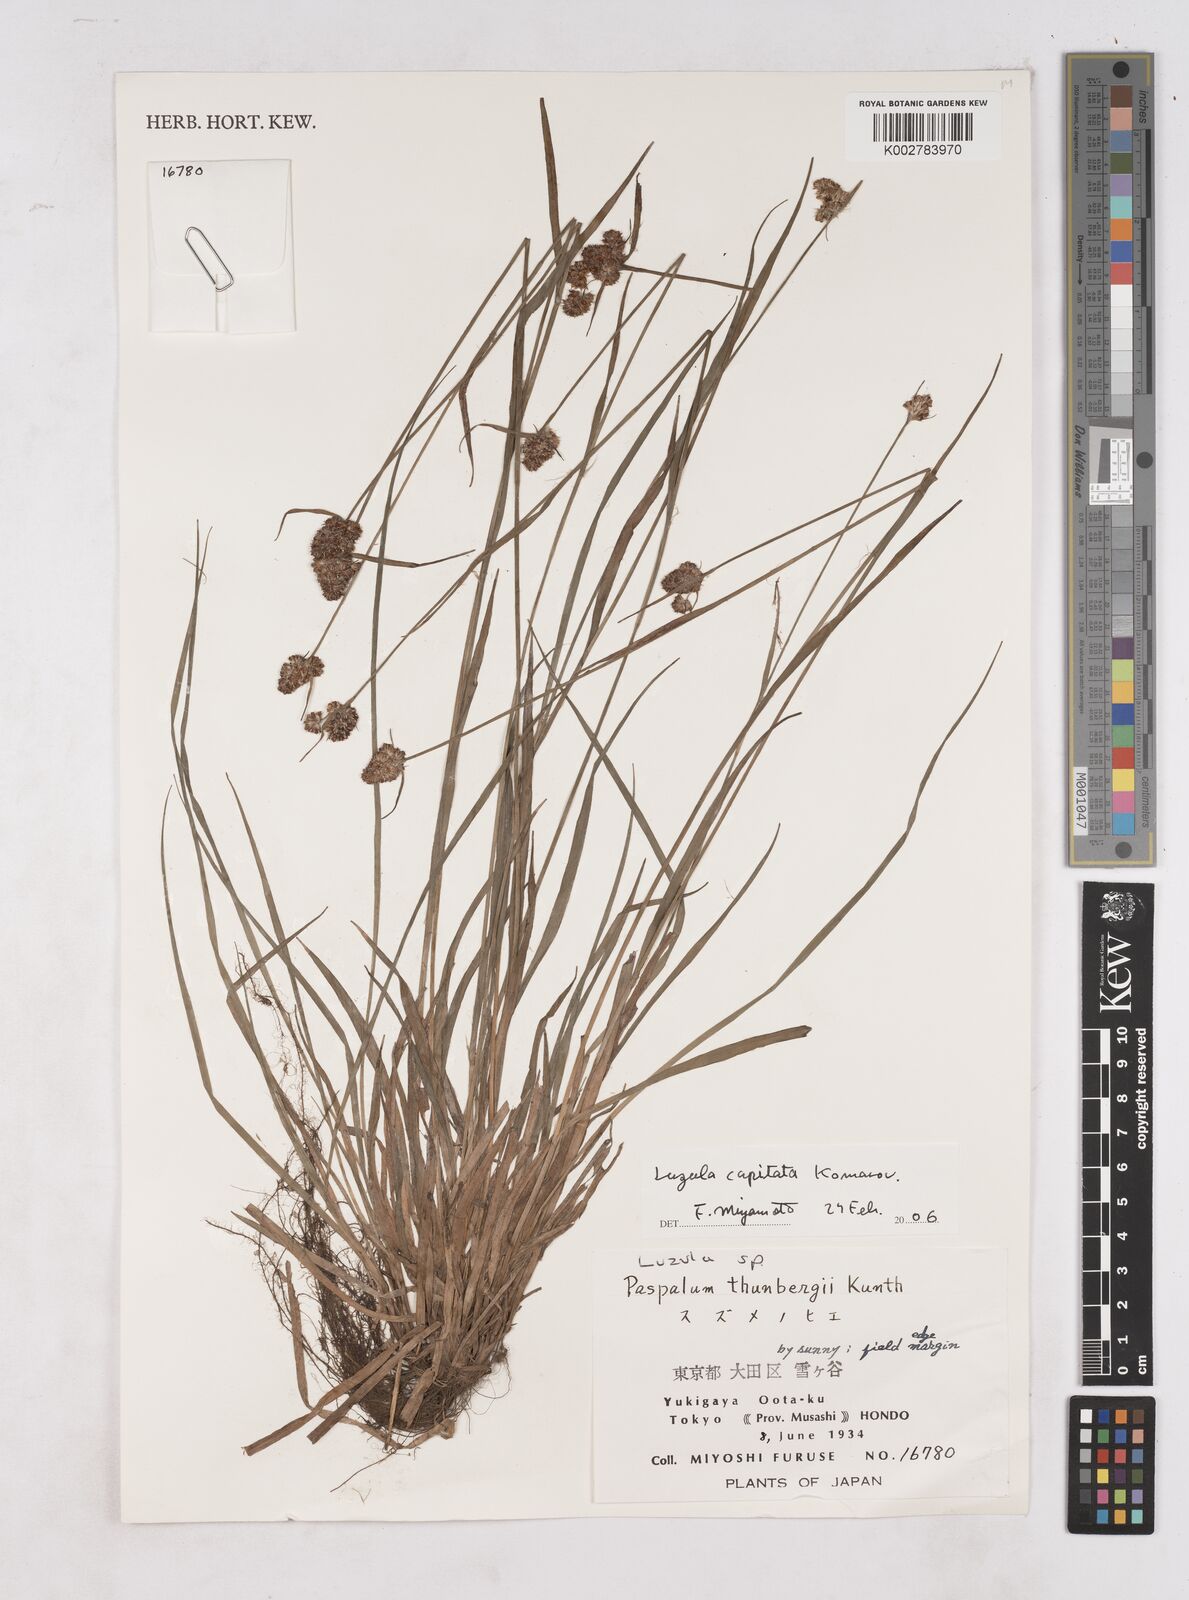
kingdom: Plantae
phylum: Tracheophyta
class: Liliopsida
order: Poales
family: Juncaceae
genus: Luzula
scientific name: Luzula capitata
